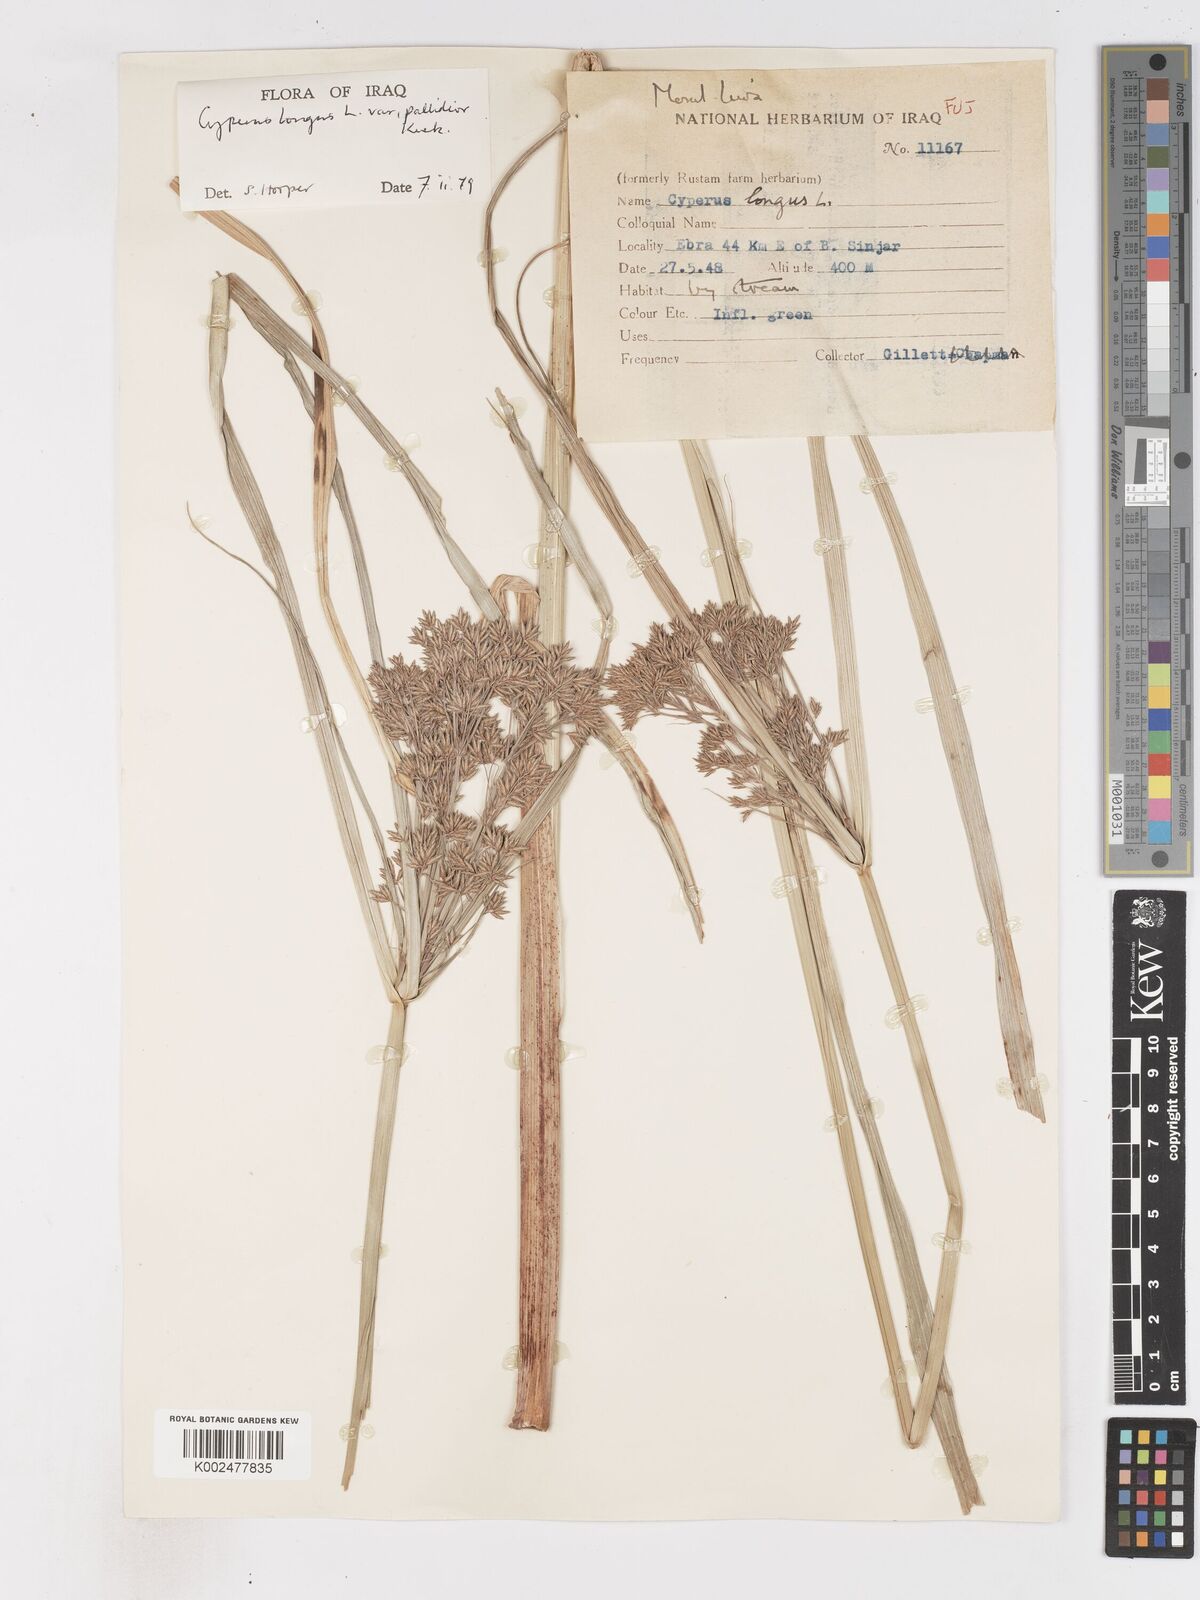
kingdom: Plantae
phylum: Tracheophyta
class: Liliopsida
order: Poales
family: Cyperaceae
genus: Cyperus
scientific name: Cyperus longus
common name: Galingale
